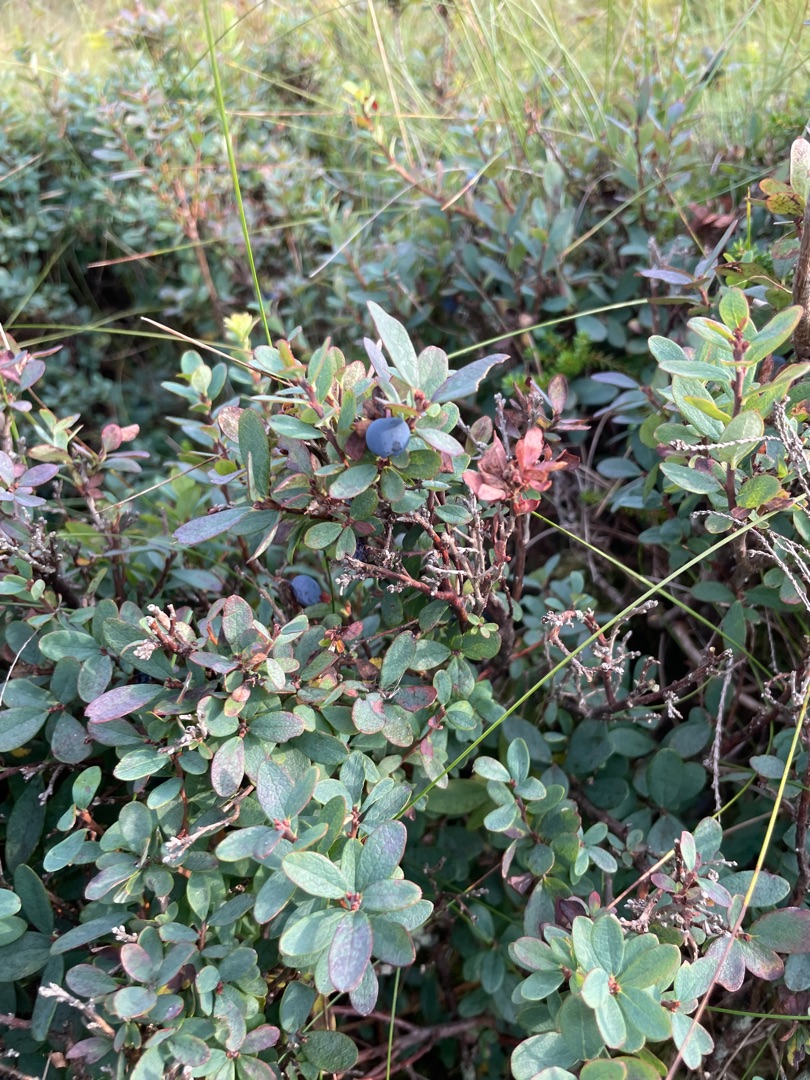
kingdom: Plantae
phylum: Tracheophyta
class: Magnoliopsida
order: Ericales
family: Ericaceae
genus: Vaccinium
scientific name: Vaccinium uliginosum
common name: Mose-bølle
